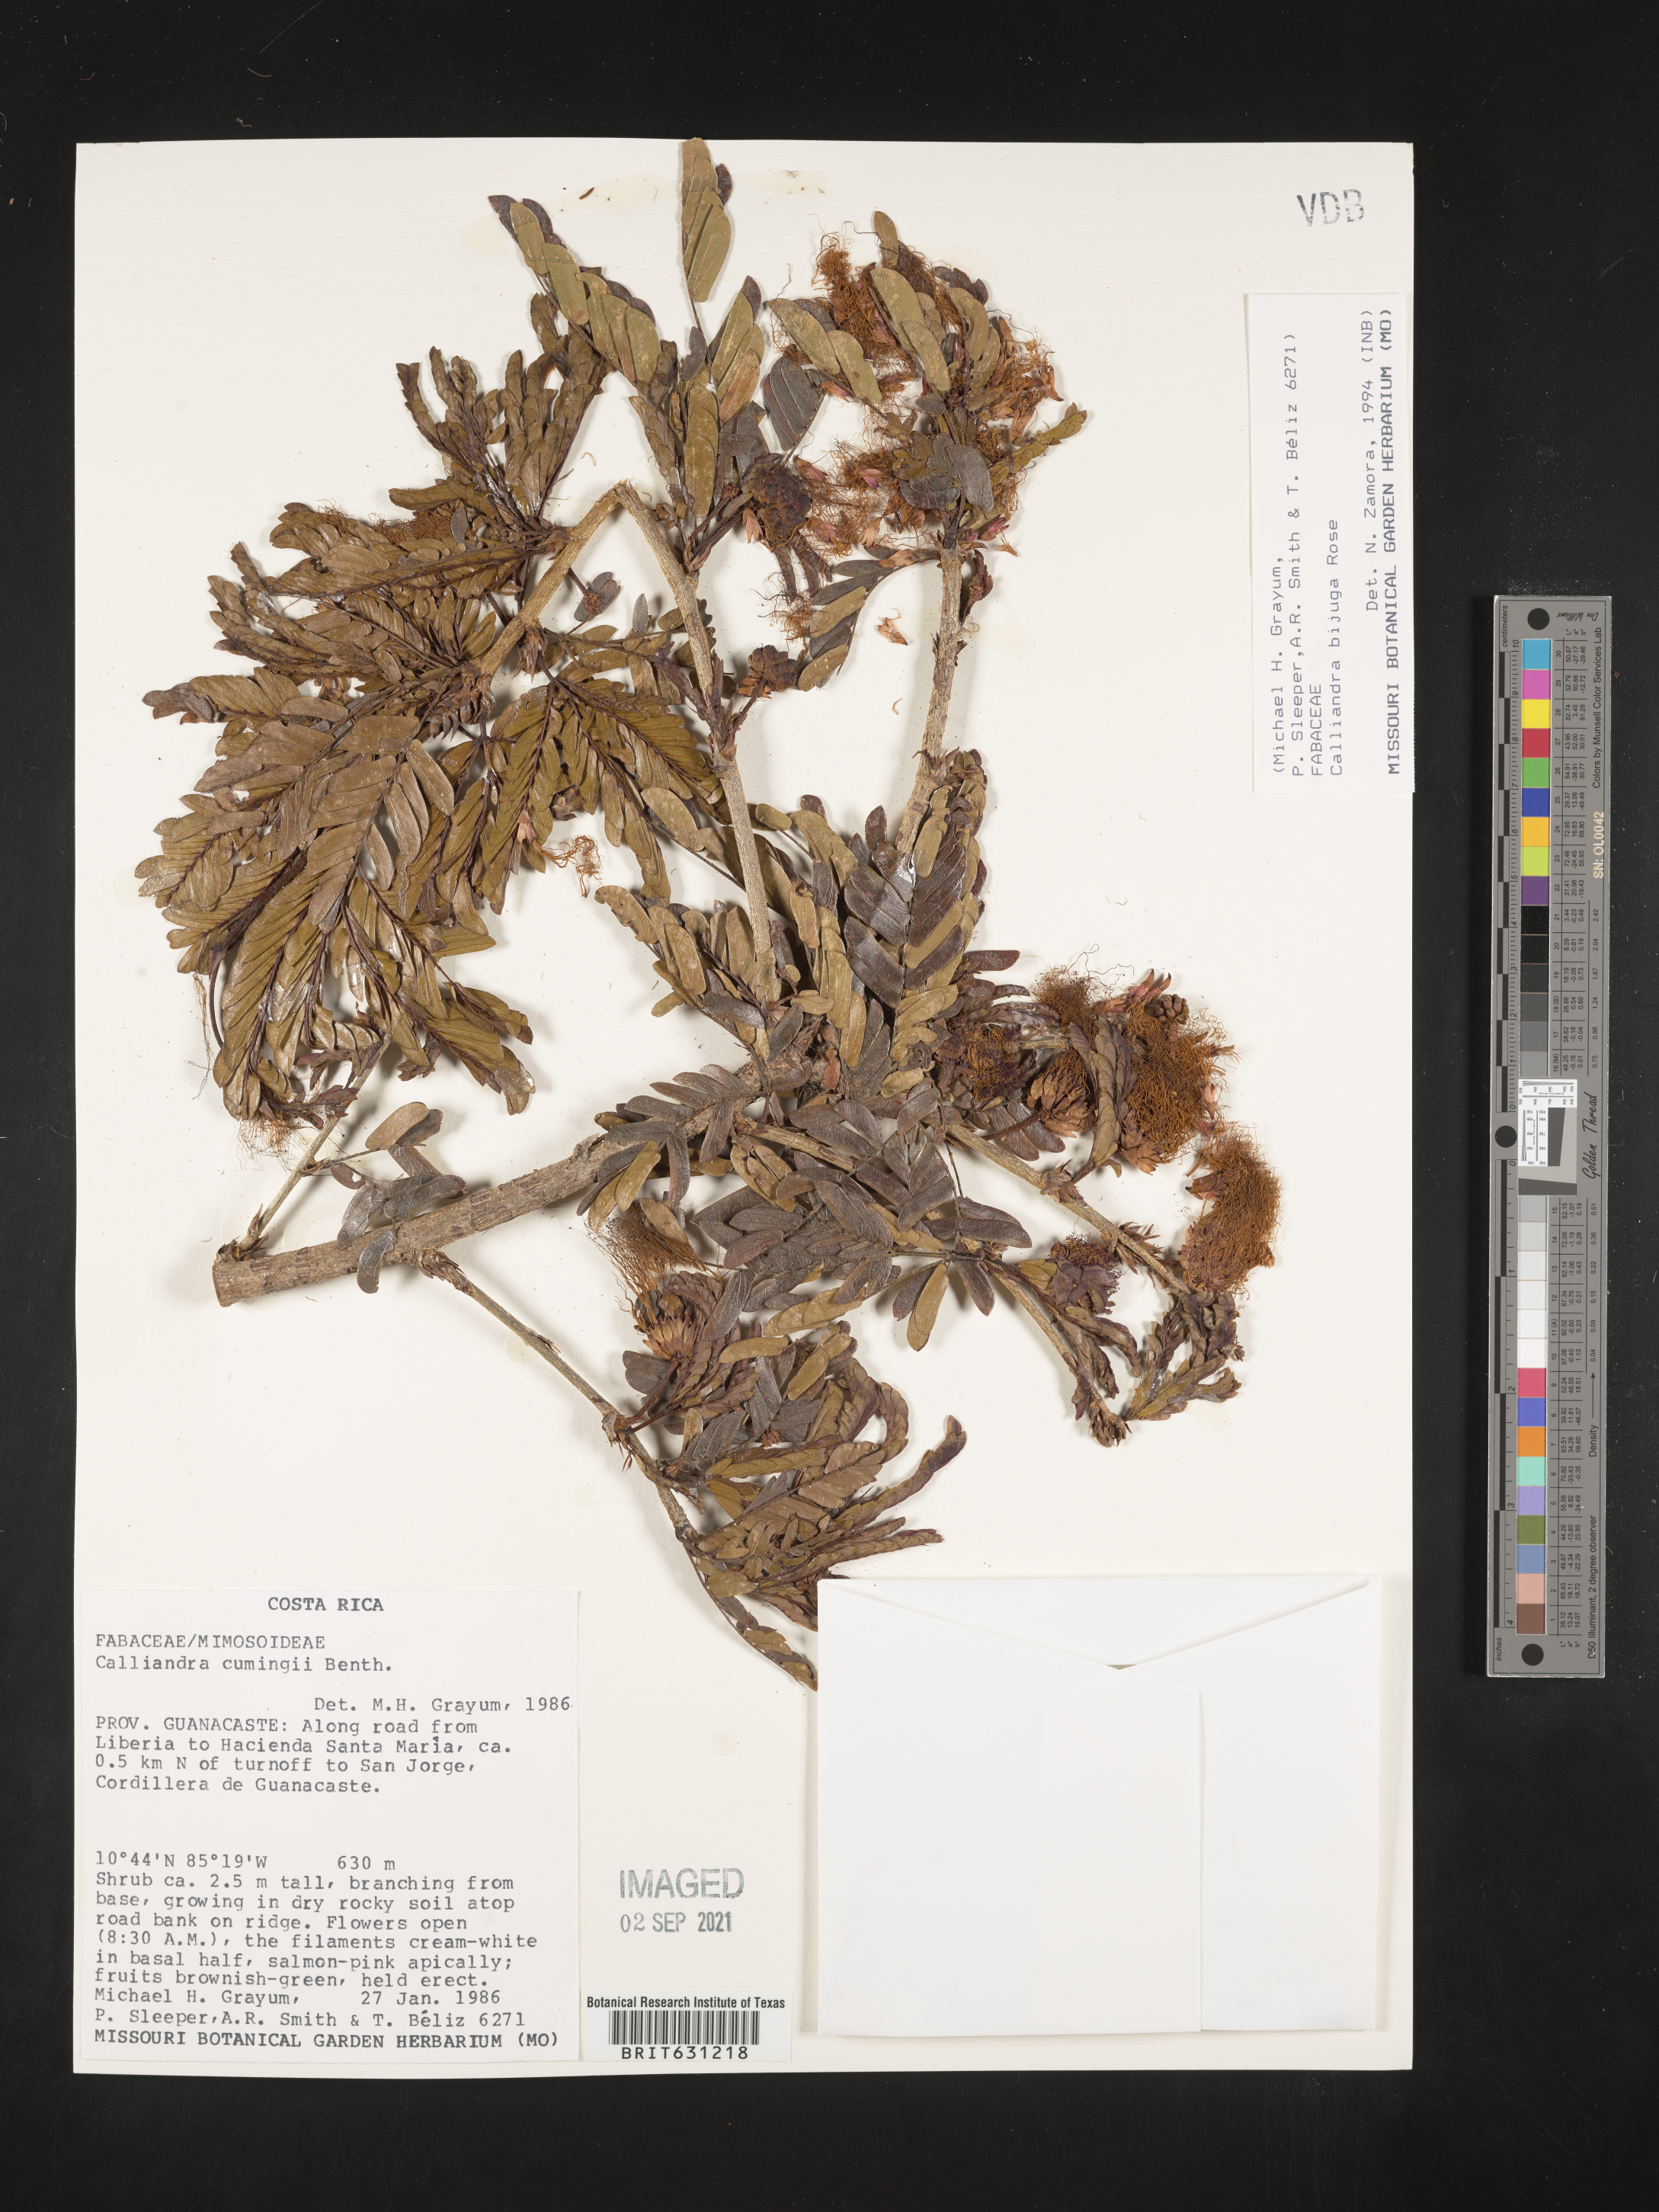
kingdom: Plantae
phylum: Tracheophyta
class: Magnoliopsida
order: Fabales
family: Fabaceae
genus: Calliandra
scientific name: Calliandra bijuga
